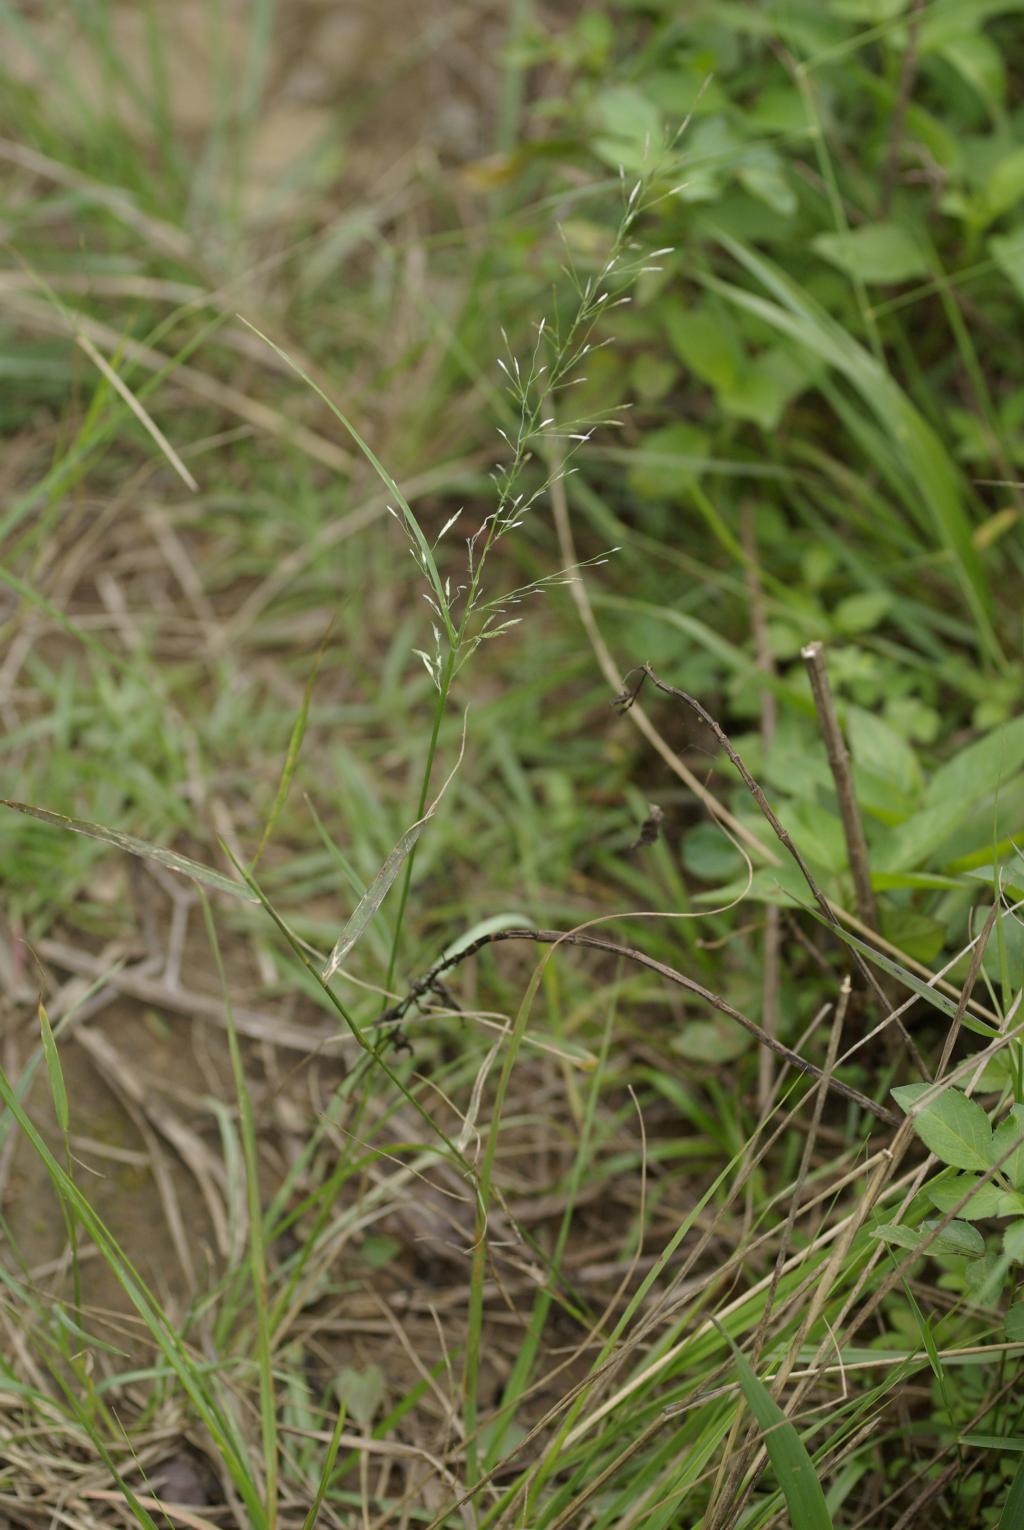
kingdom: Plantae
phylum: Tracheophyta
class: Liliopsida
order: Poales
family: Poaceae
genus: Eragrostis
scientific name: Eragrostis tenuifolia
